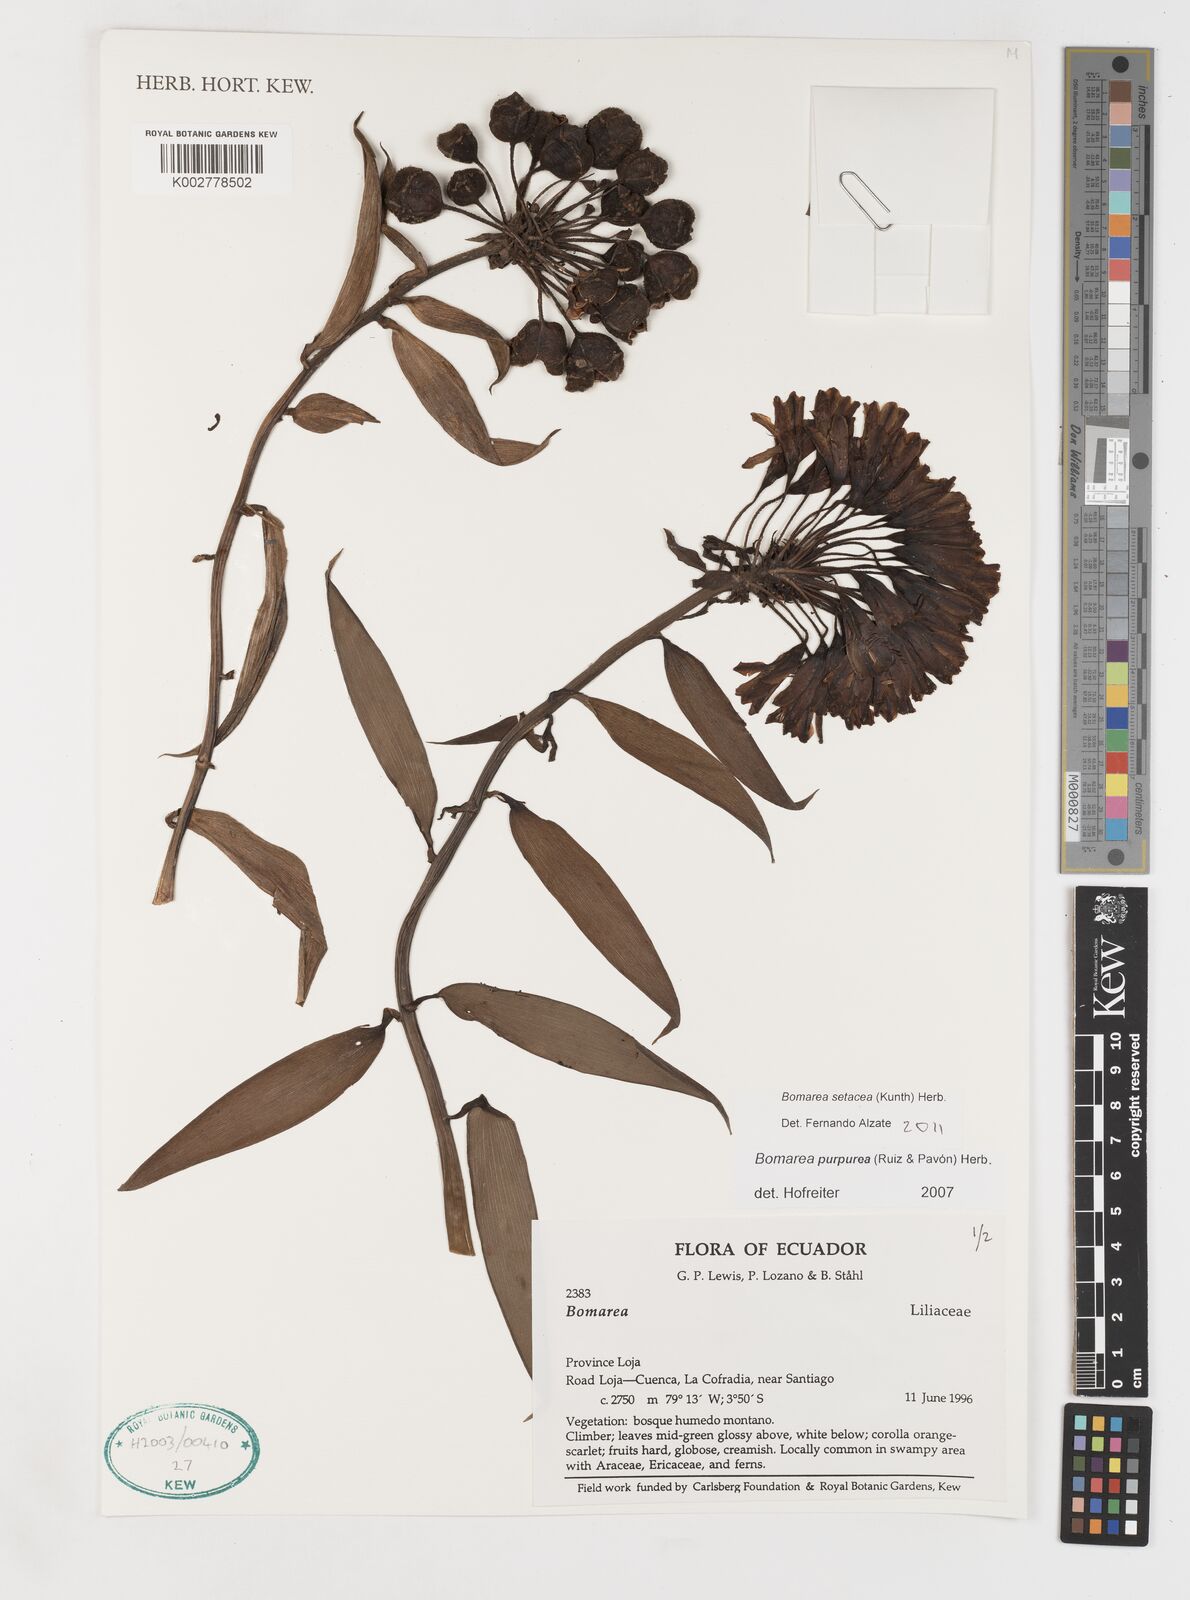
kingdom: Plantae
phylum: Tracheophyta
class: Liliopsida
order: Liliales
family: Alstroemeriaceae
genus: Bomarea
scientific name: Bomarea setacea
